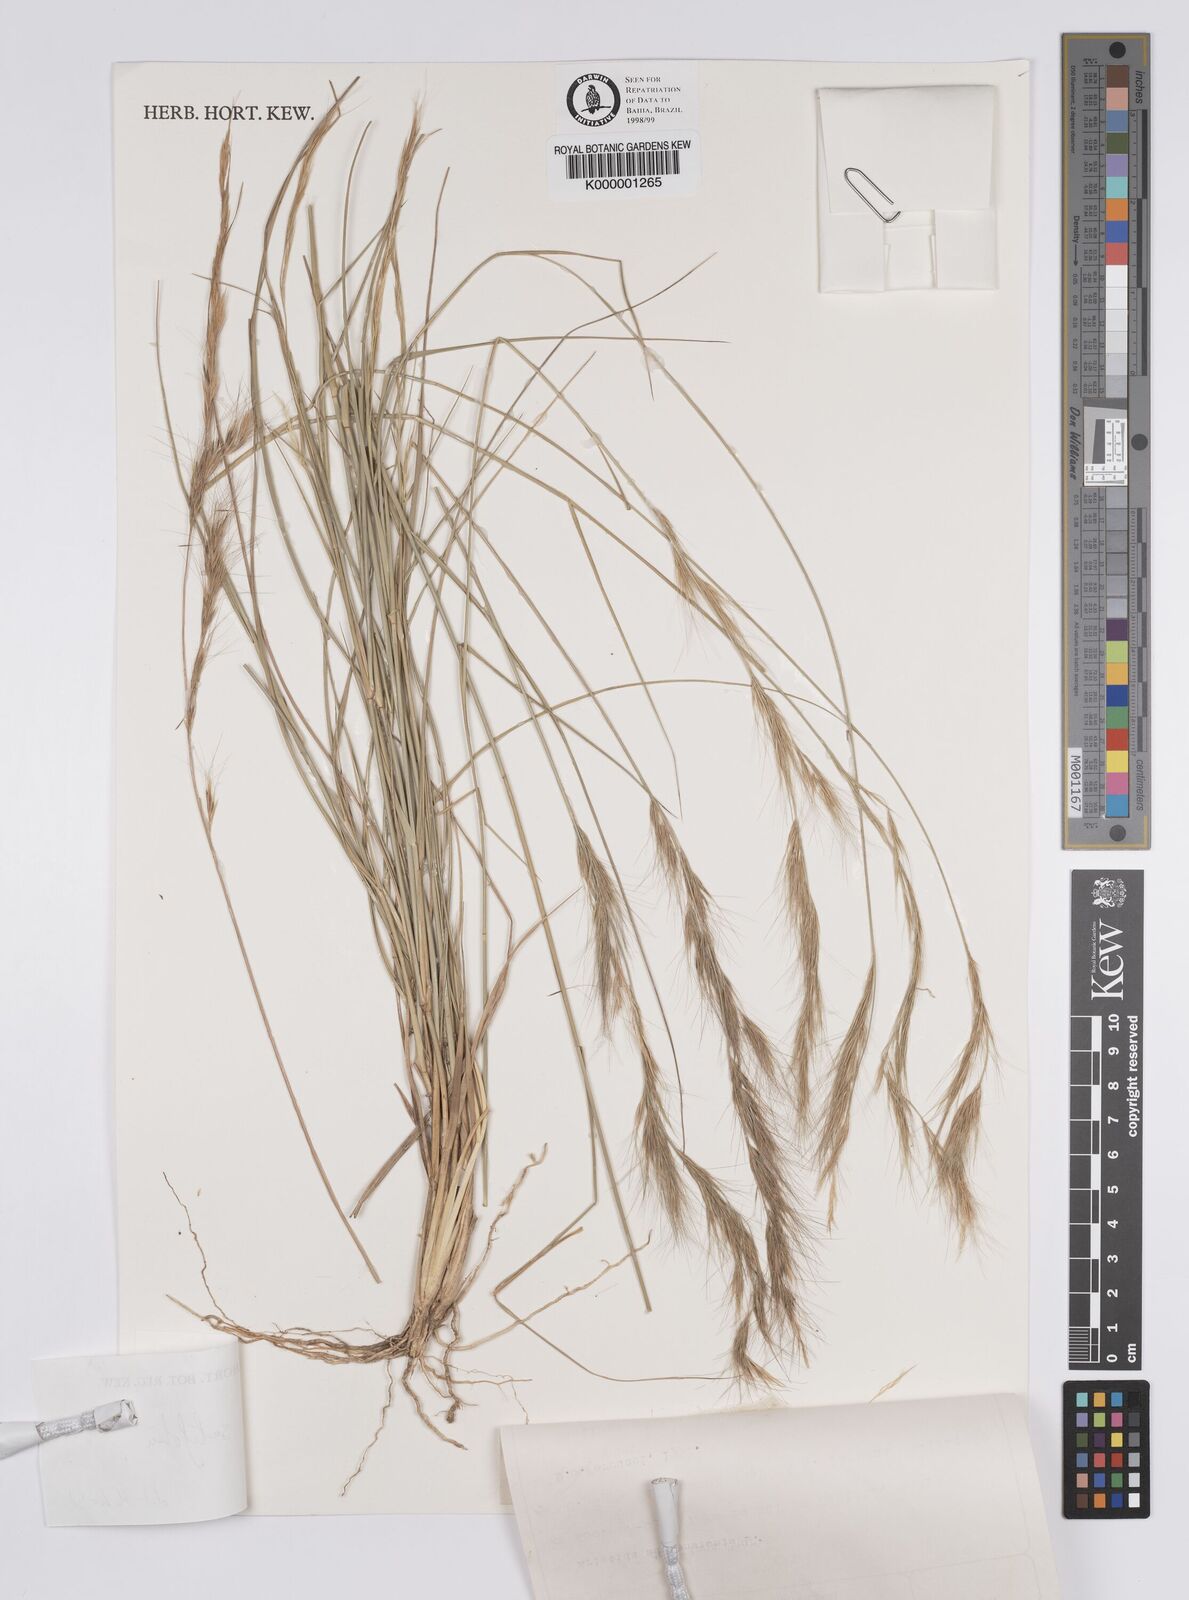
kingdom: Plantae
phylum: Tracheophyta
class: Liliopsida
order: Poales
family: Poaceae
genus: Aristida
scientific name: Aristida setifolia
